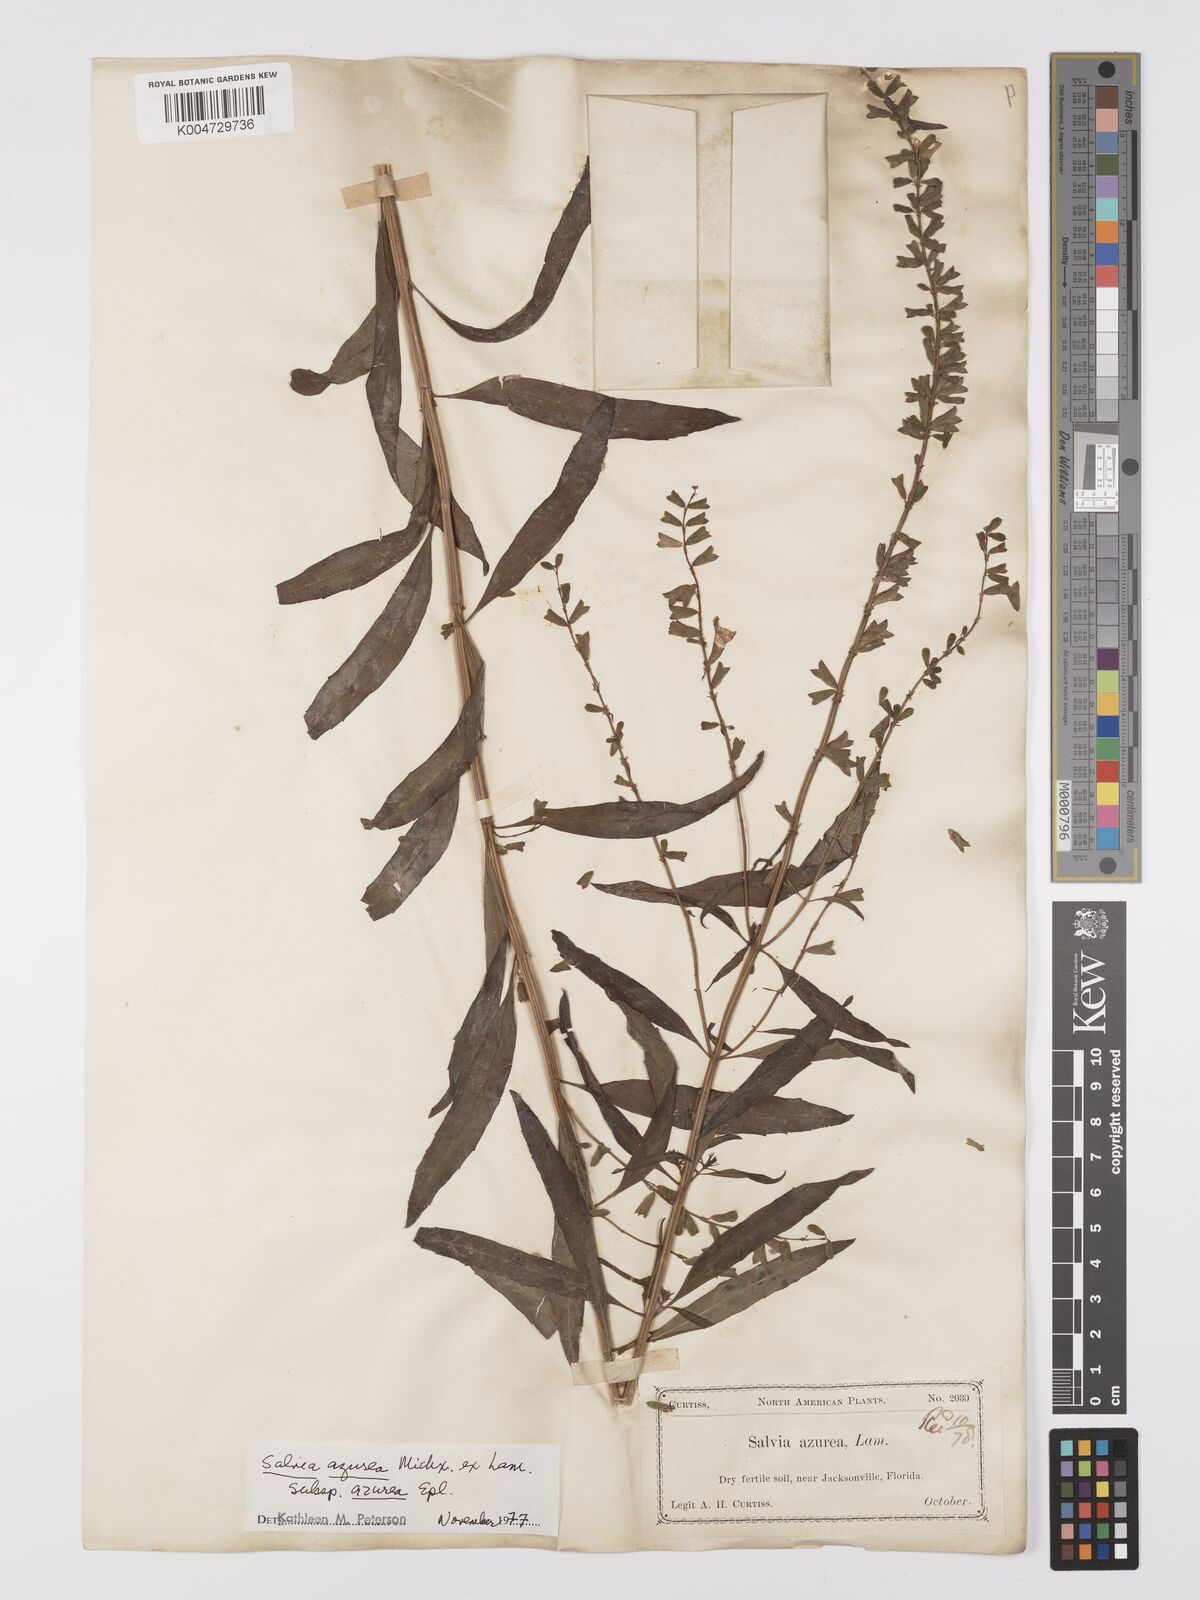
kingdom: Plantae
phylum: Tracheophyta
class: Magnoliopsida
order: Lamiales
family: Lamiaceae
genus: Salvia
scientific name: Salvia azurea
